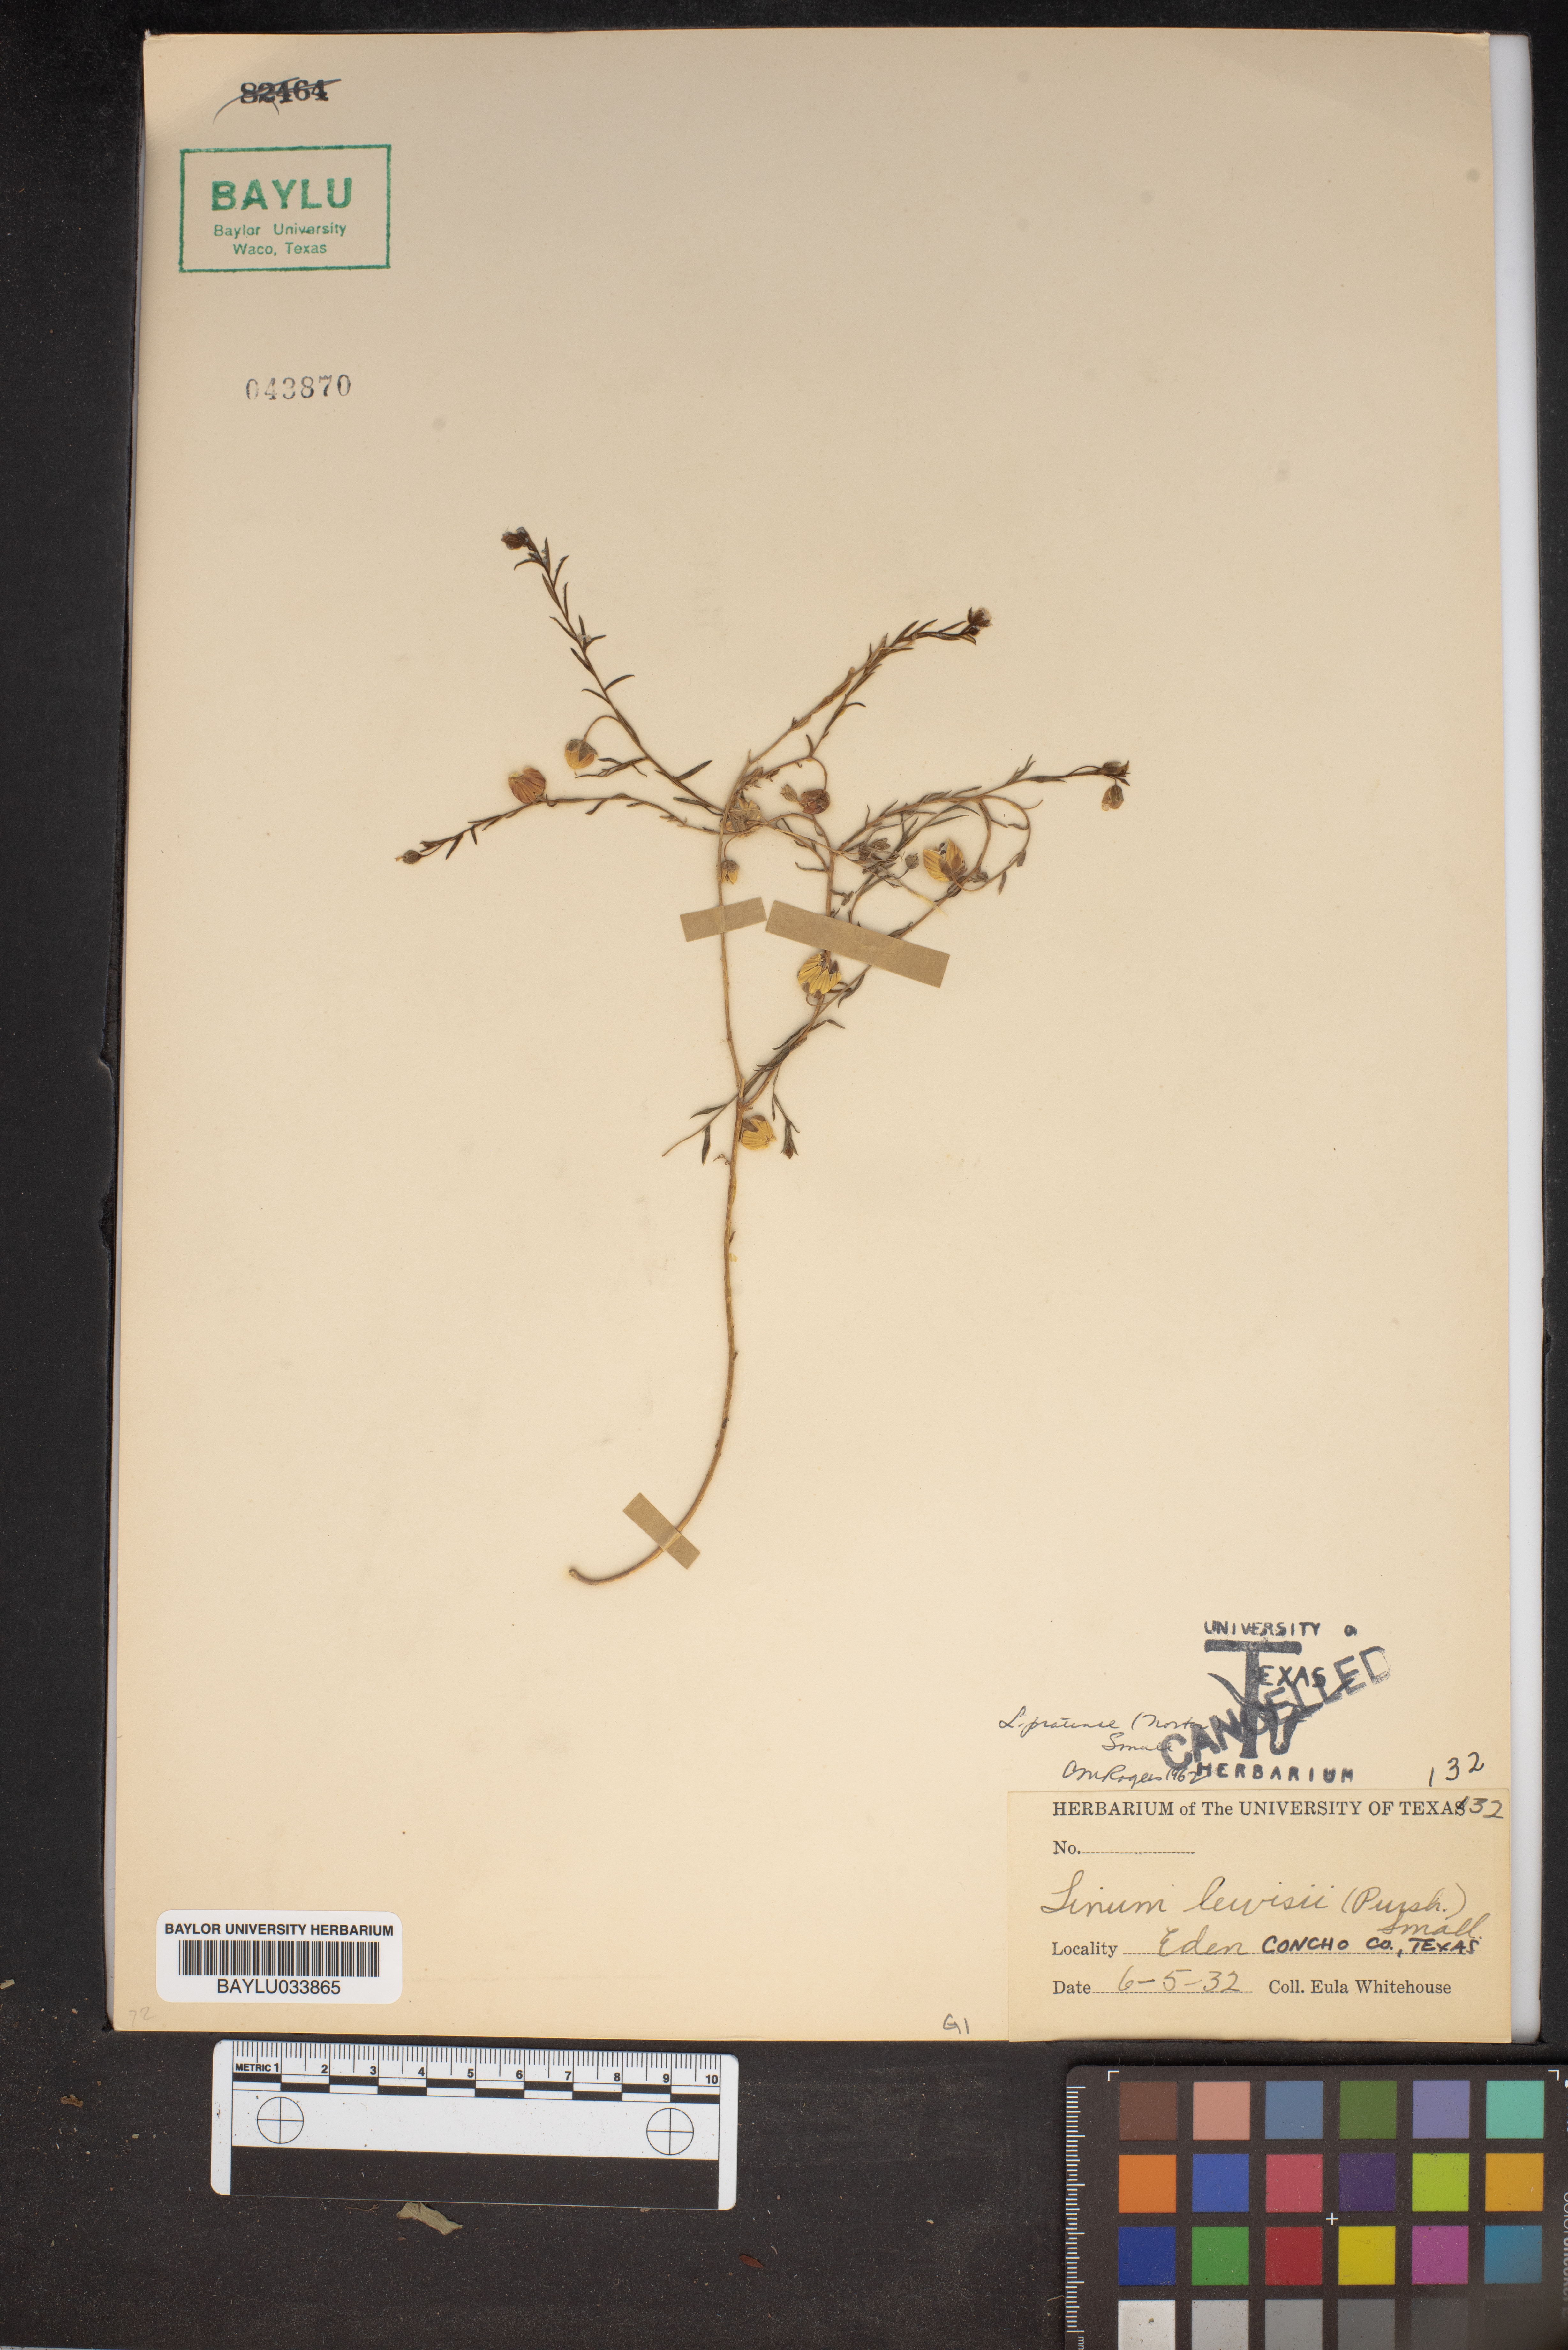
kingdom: Plantae
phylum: Tracheophyta
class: Magnoliopsida
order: Malpighiales
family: Linaceae
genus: Linum
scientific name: Linum lewisii
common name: Prairie flax
